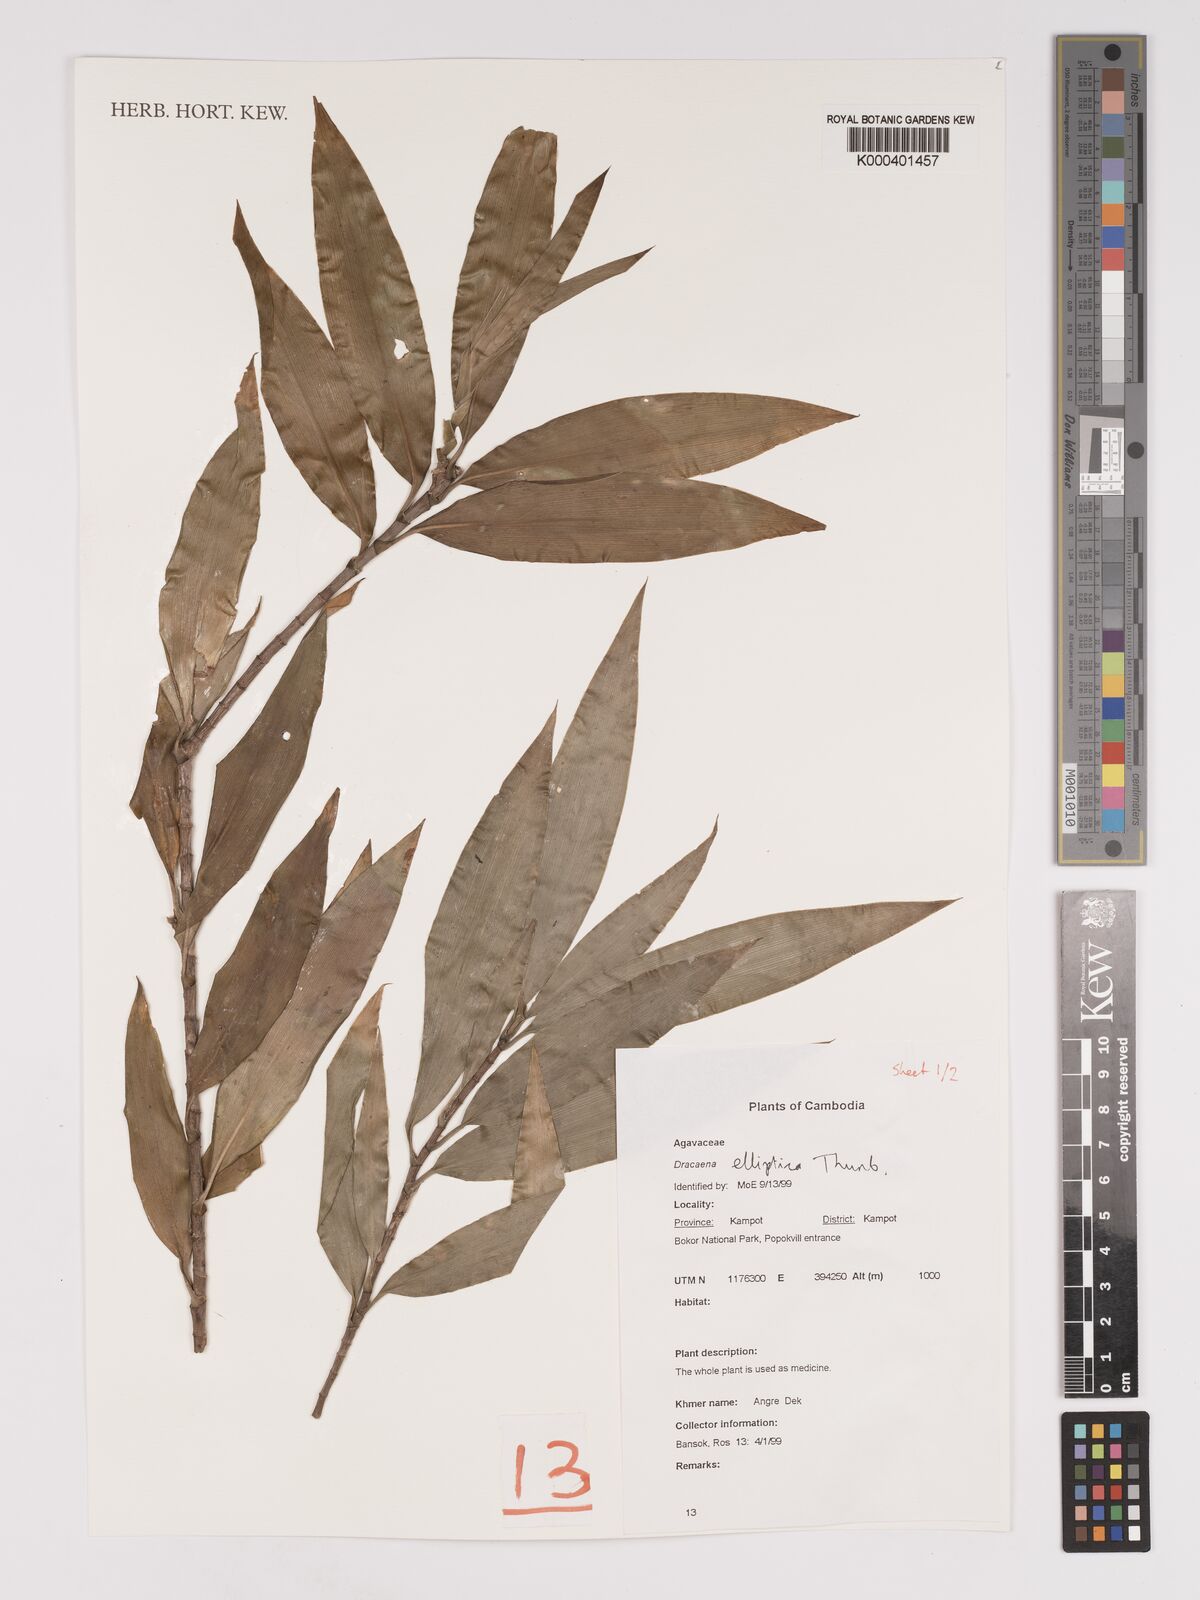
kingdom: Plantae
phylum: Tracheophyta
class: Liliopsida
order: Asparagales
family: Asparagaceae
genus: Dracaena
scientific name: Dracaena elliptica
